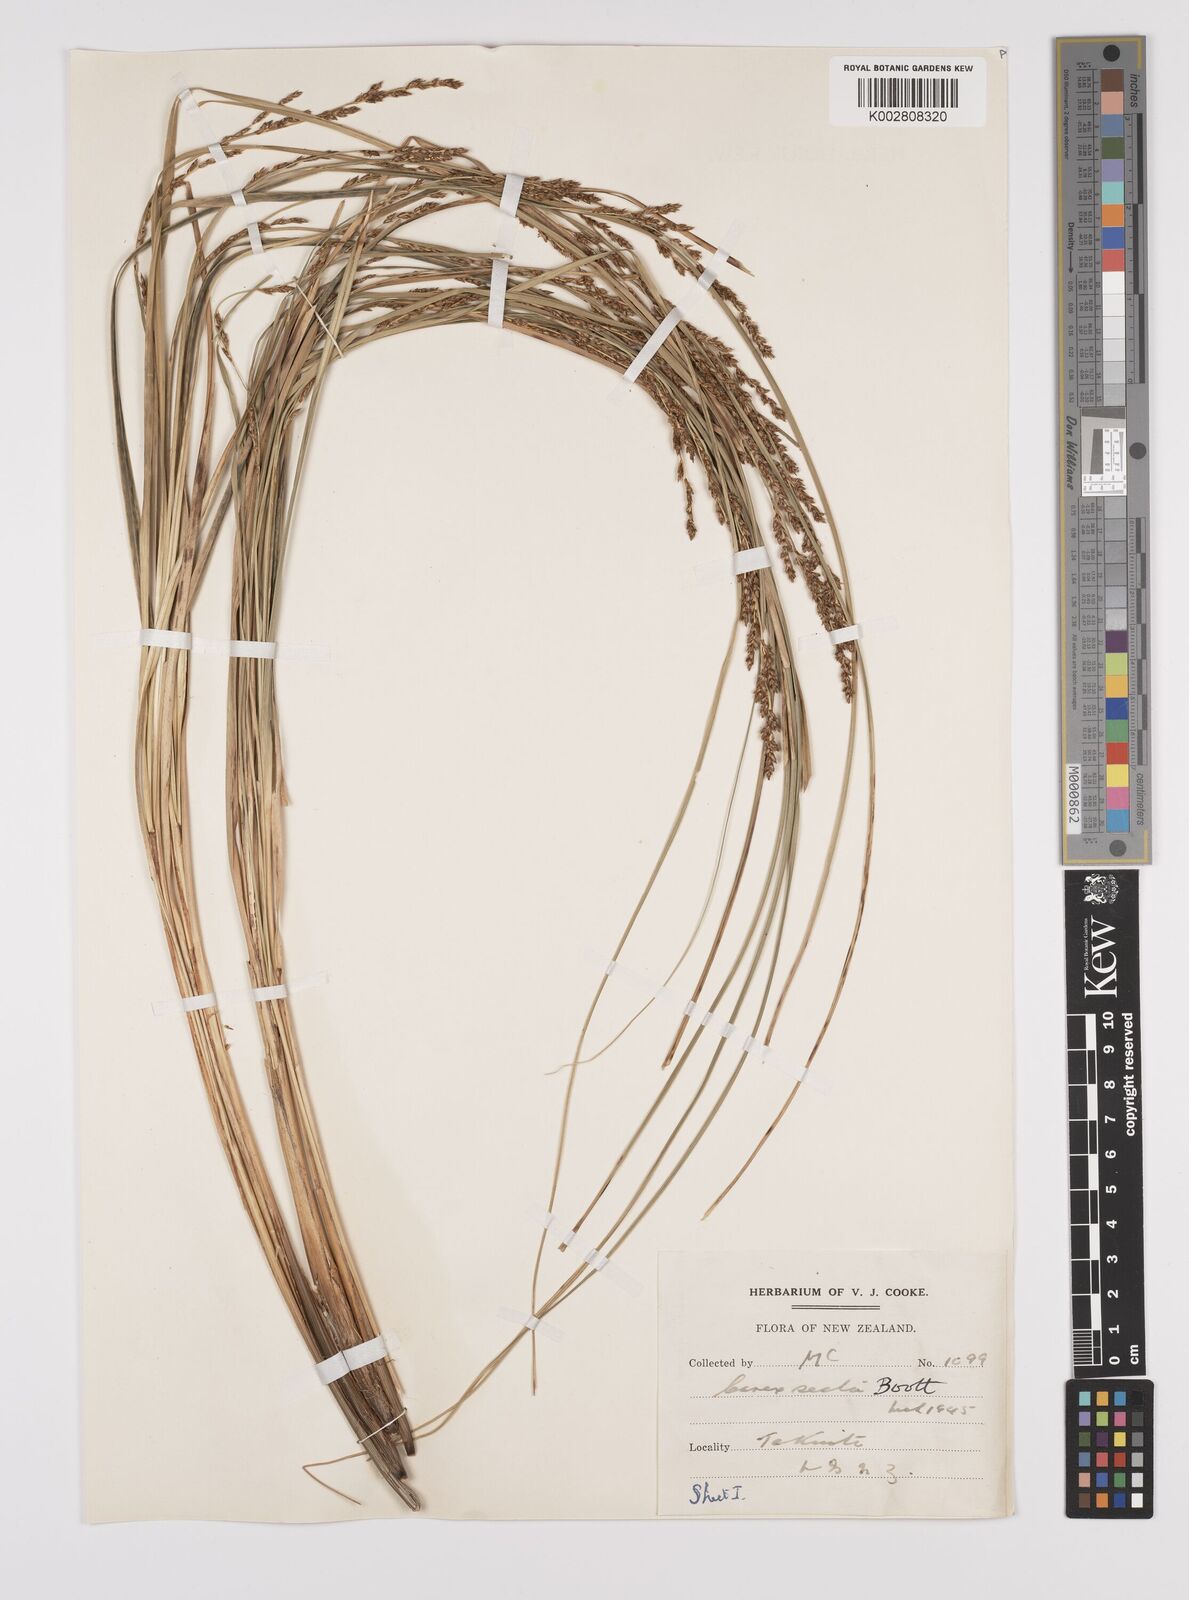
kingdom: Plantae
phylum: Tracheophyta
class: Liliopsida
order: Poales
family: Cyperaceae
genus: Carex
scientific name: Carex appressa
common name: Tussock sedge
